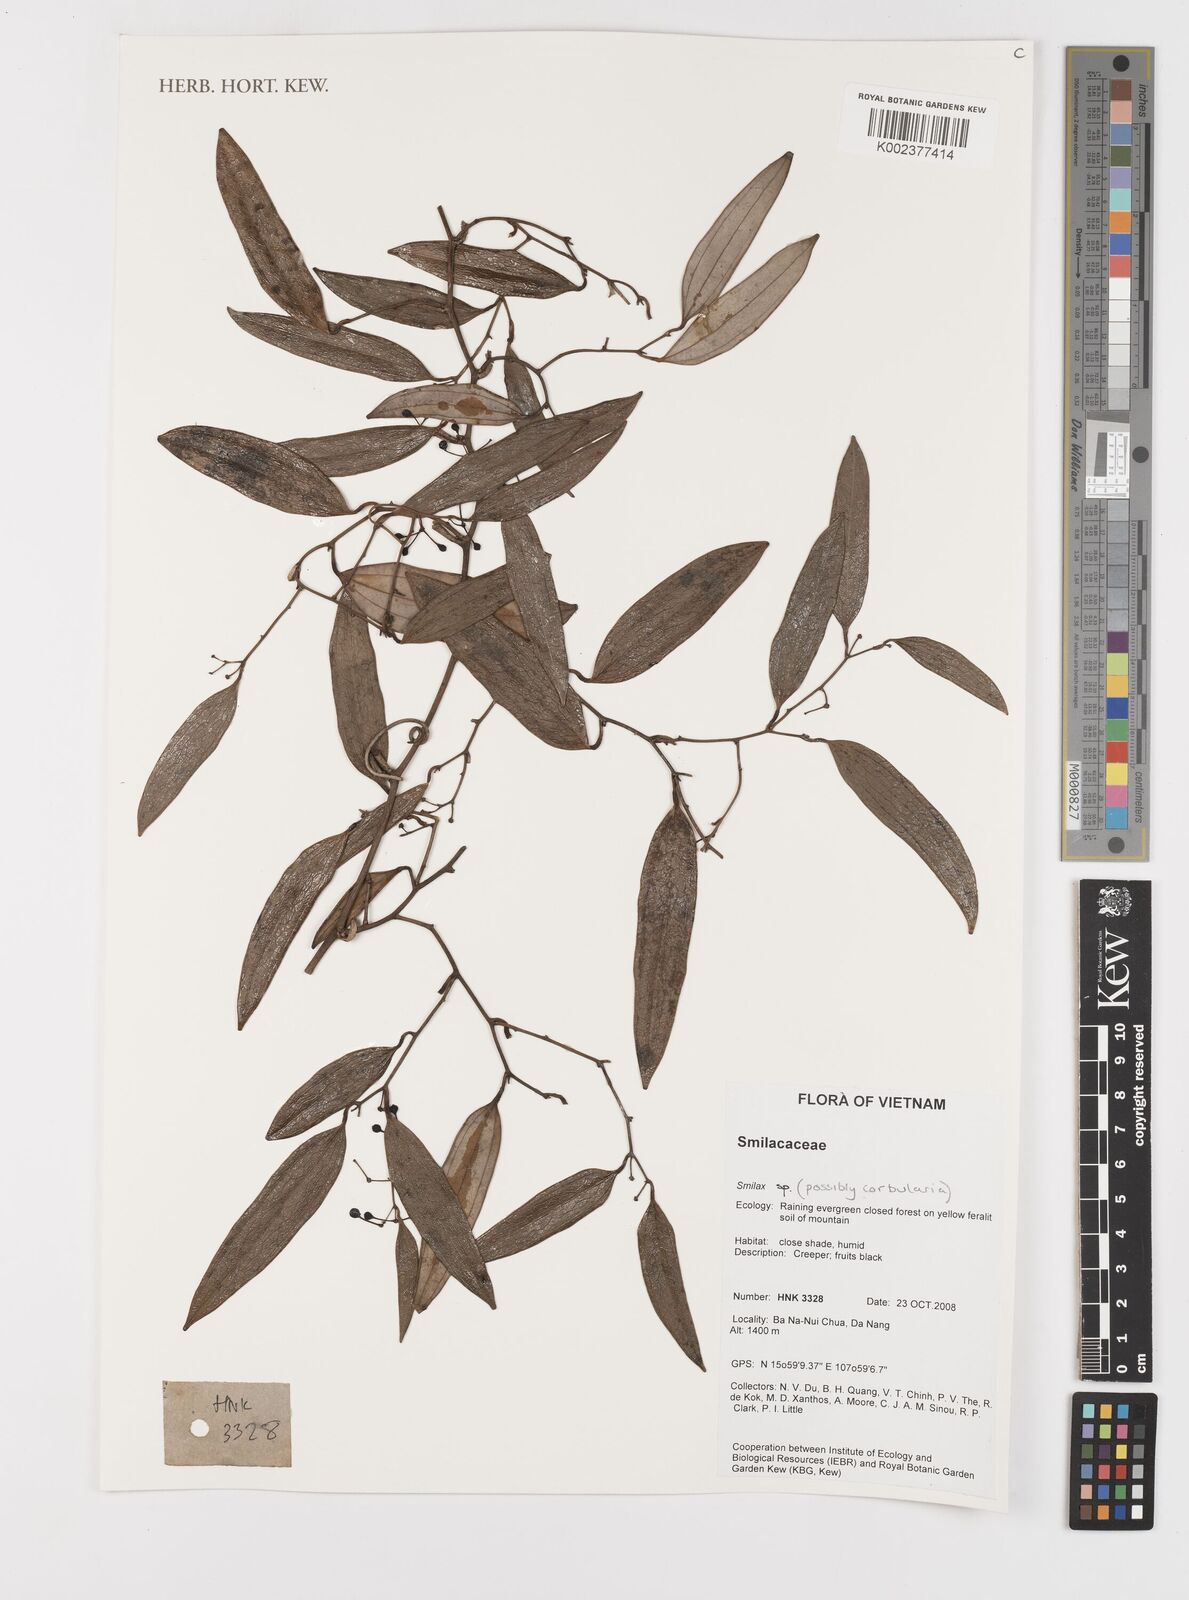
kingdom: Plantae
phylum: Tracheophyta
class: Liliopsida
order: Liliales
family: Smilacaceae
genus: Smilax
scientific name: Smilax
